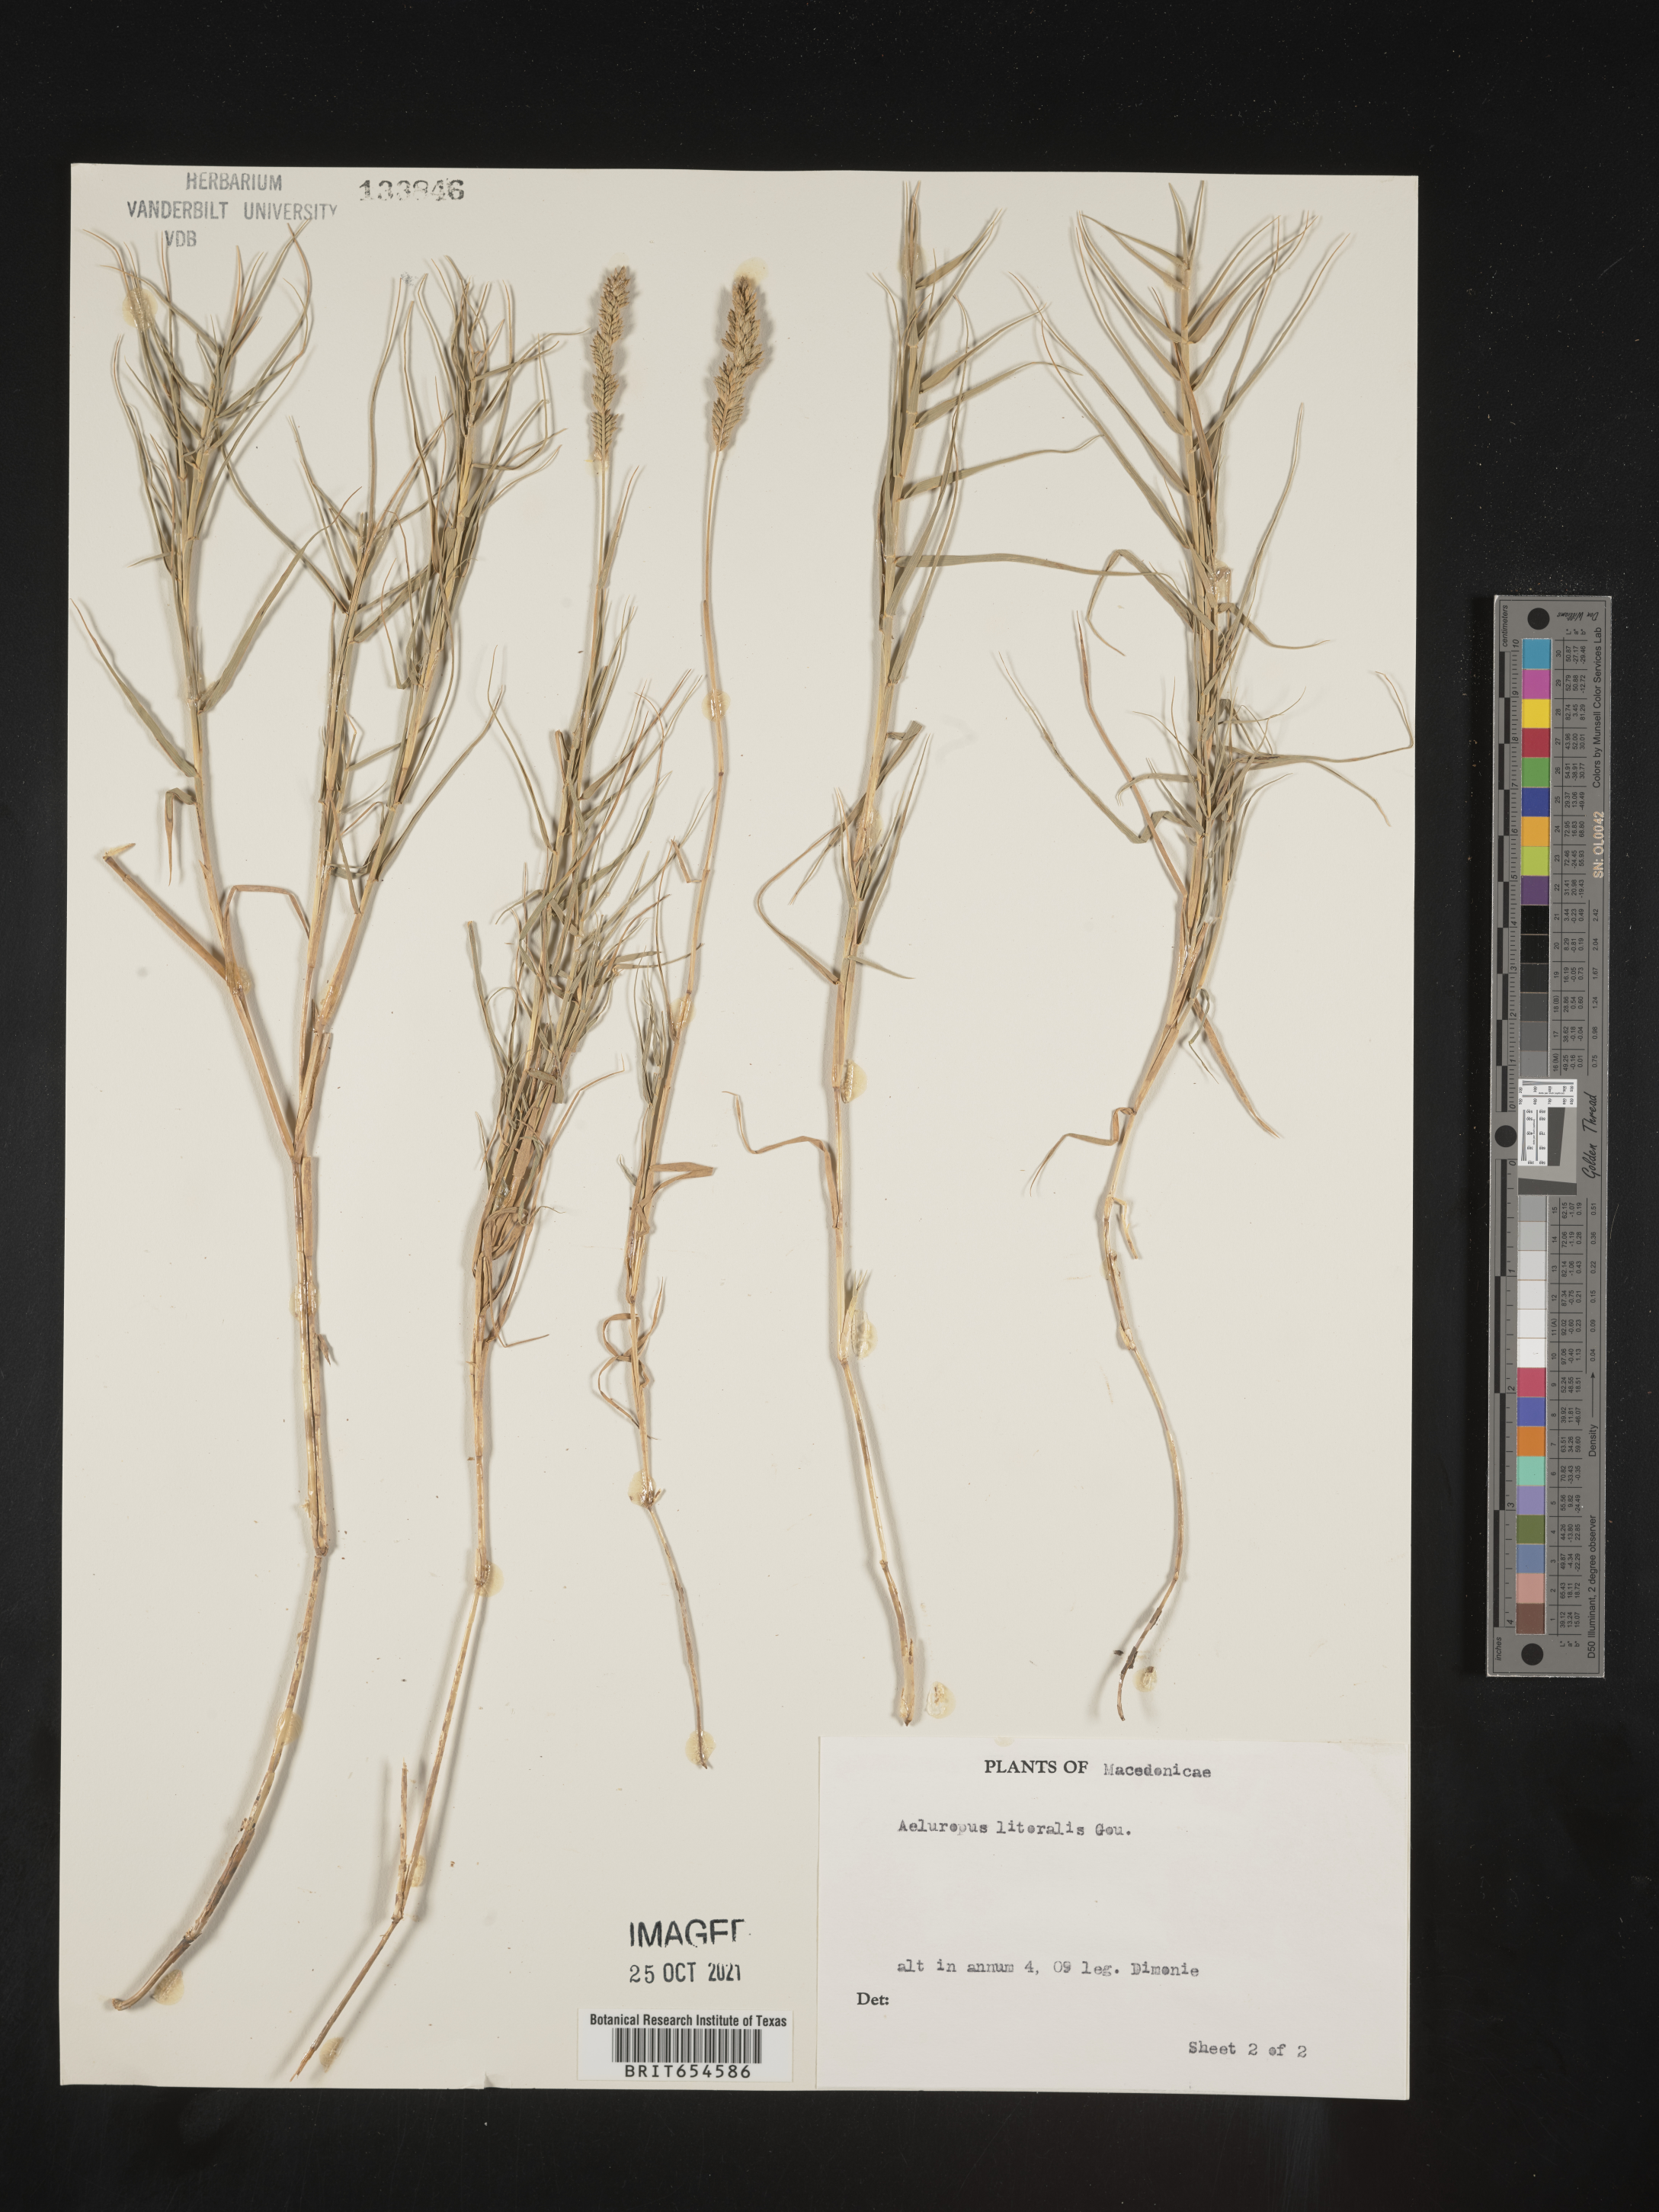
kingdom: Plantae
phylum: Tracheophyta
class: Liliopsida
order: Poales
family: Poaceae
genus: Aeluropus
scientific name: Aeluropus
